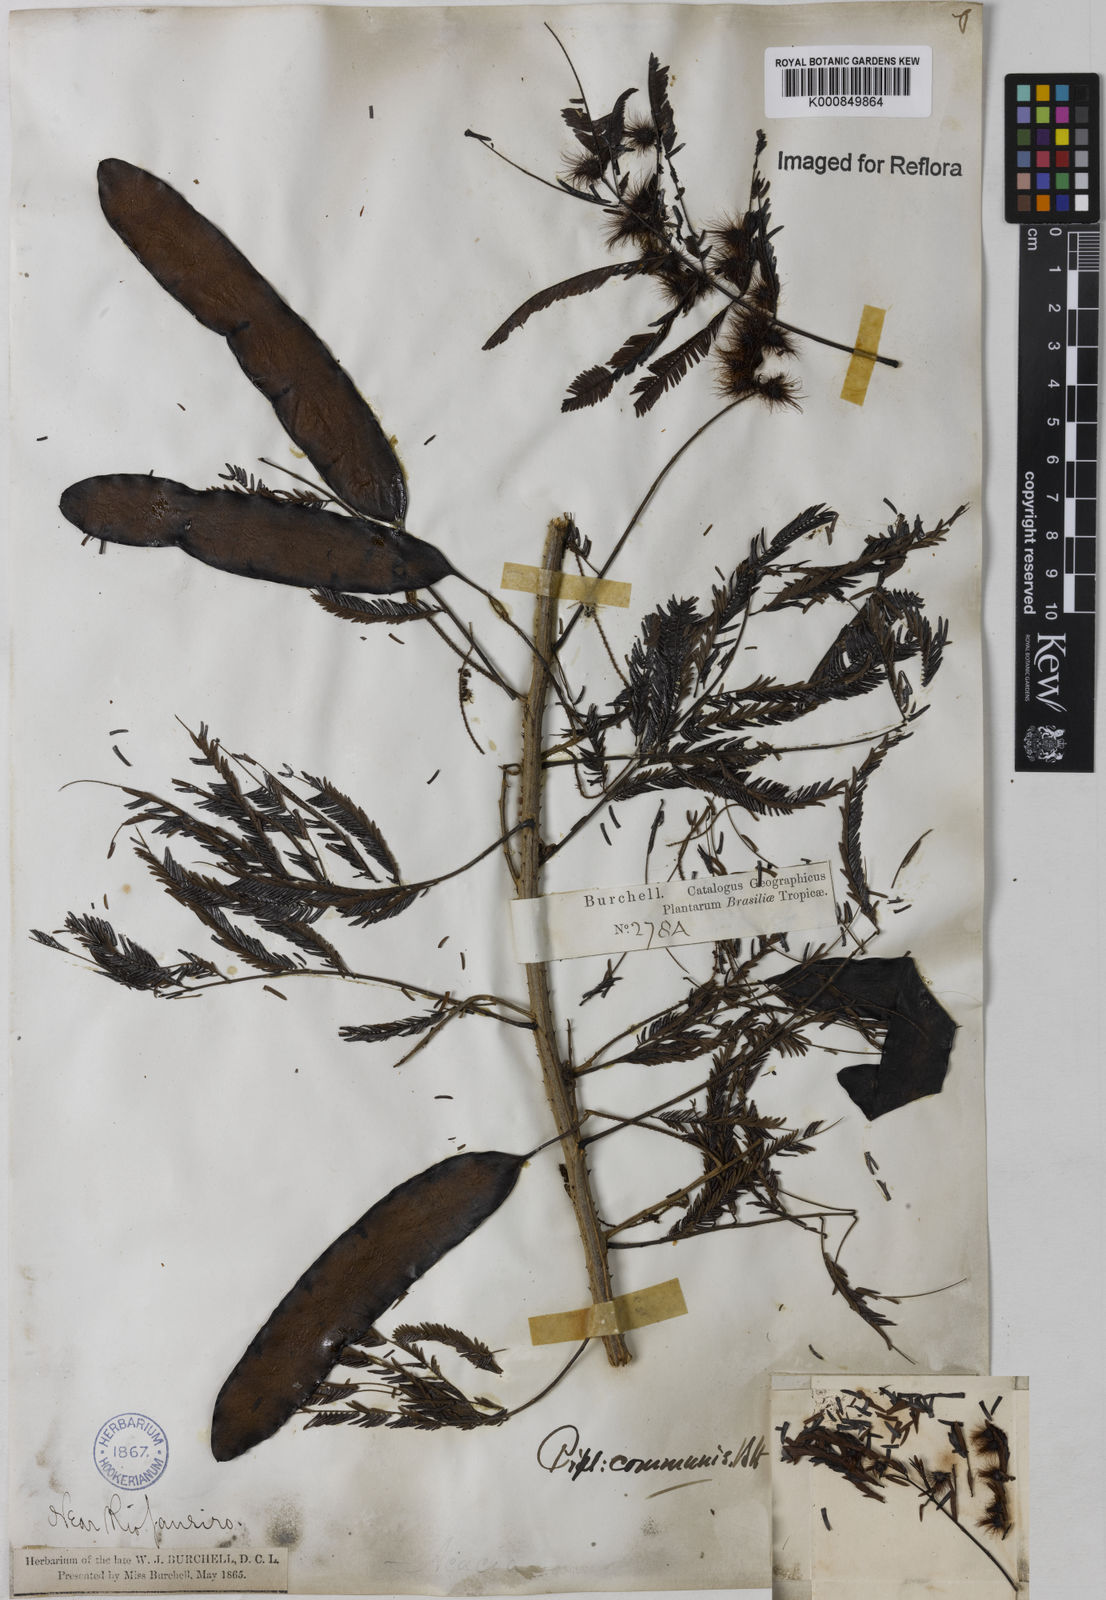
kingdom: Plantae
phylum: Tracheophyta
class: Magnoliopsida
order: Fabales
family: Fabaceae
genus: Piptadenia
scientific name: Piptadenia gonoacantha
